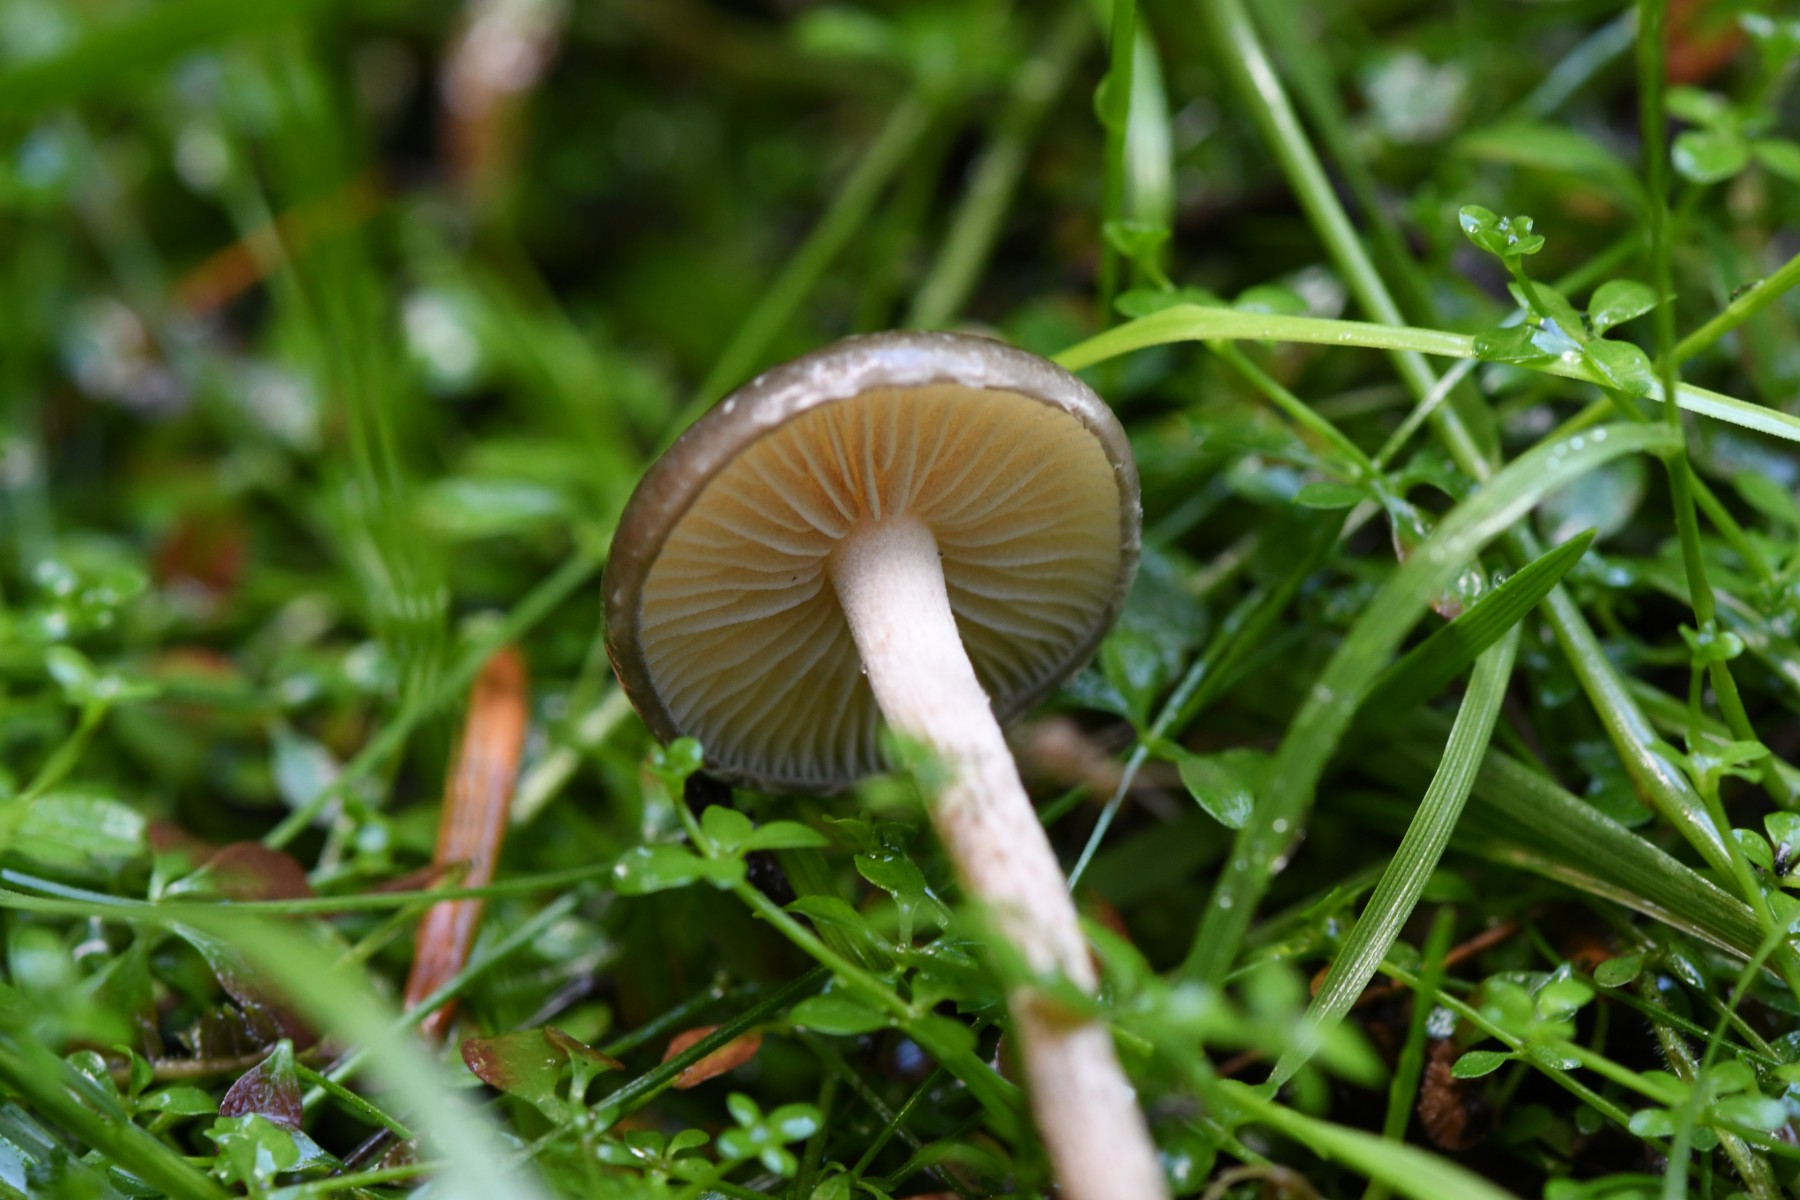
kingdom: Fungi
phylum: Basidiomycota
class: Agaricomycetes
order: Agaricales
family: Strophariaceae
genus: Hypholoma
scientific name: Hypholoma myosotis
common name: slimet svovlhat
